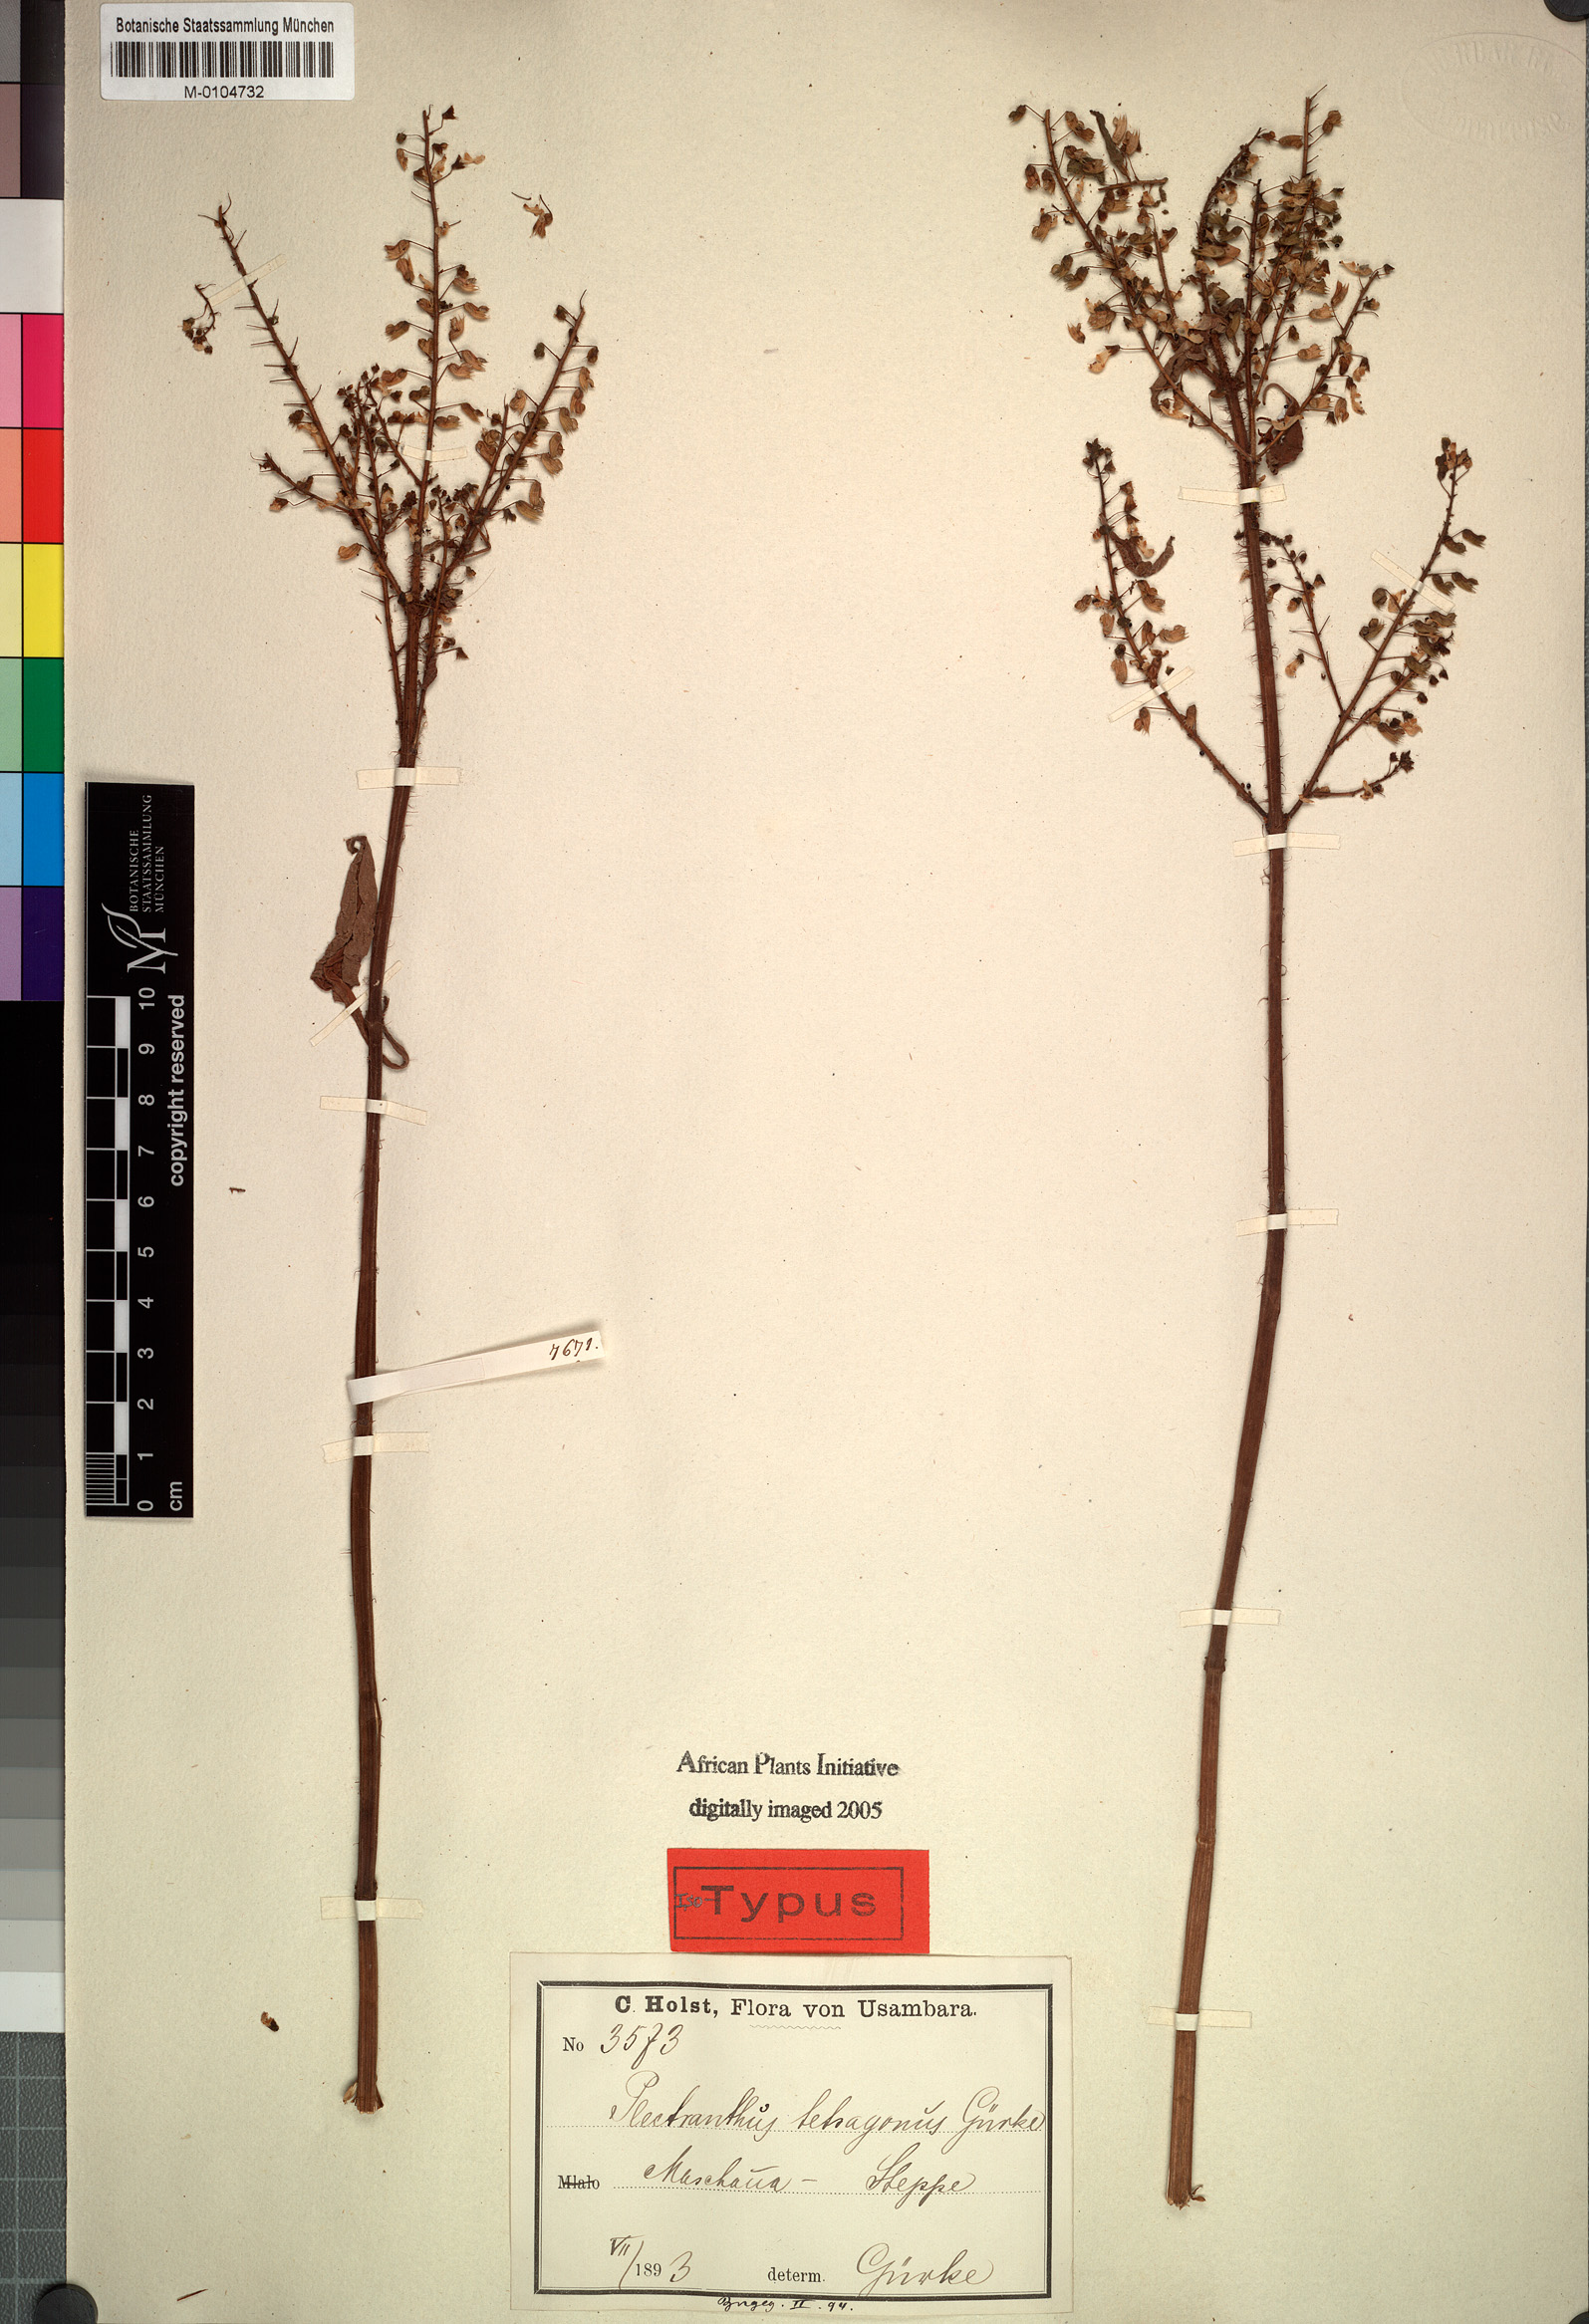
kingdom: Plantae
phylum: Tracheophyta
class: Magnoliopsida
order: Lamiales
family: Lamiaceae
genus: Coleus
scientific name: Coleus tetragonus
